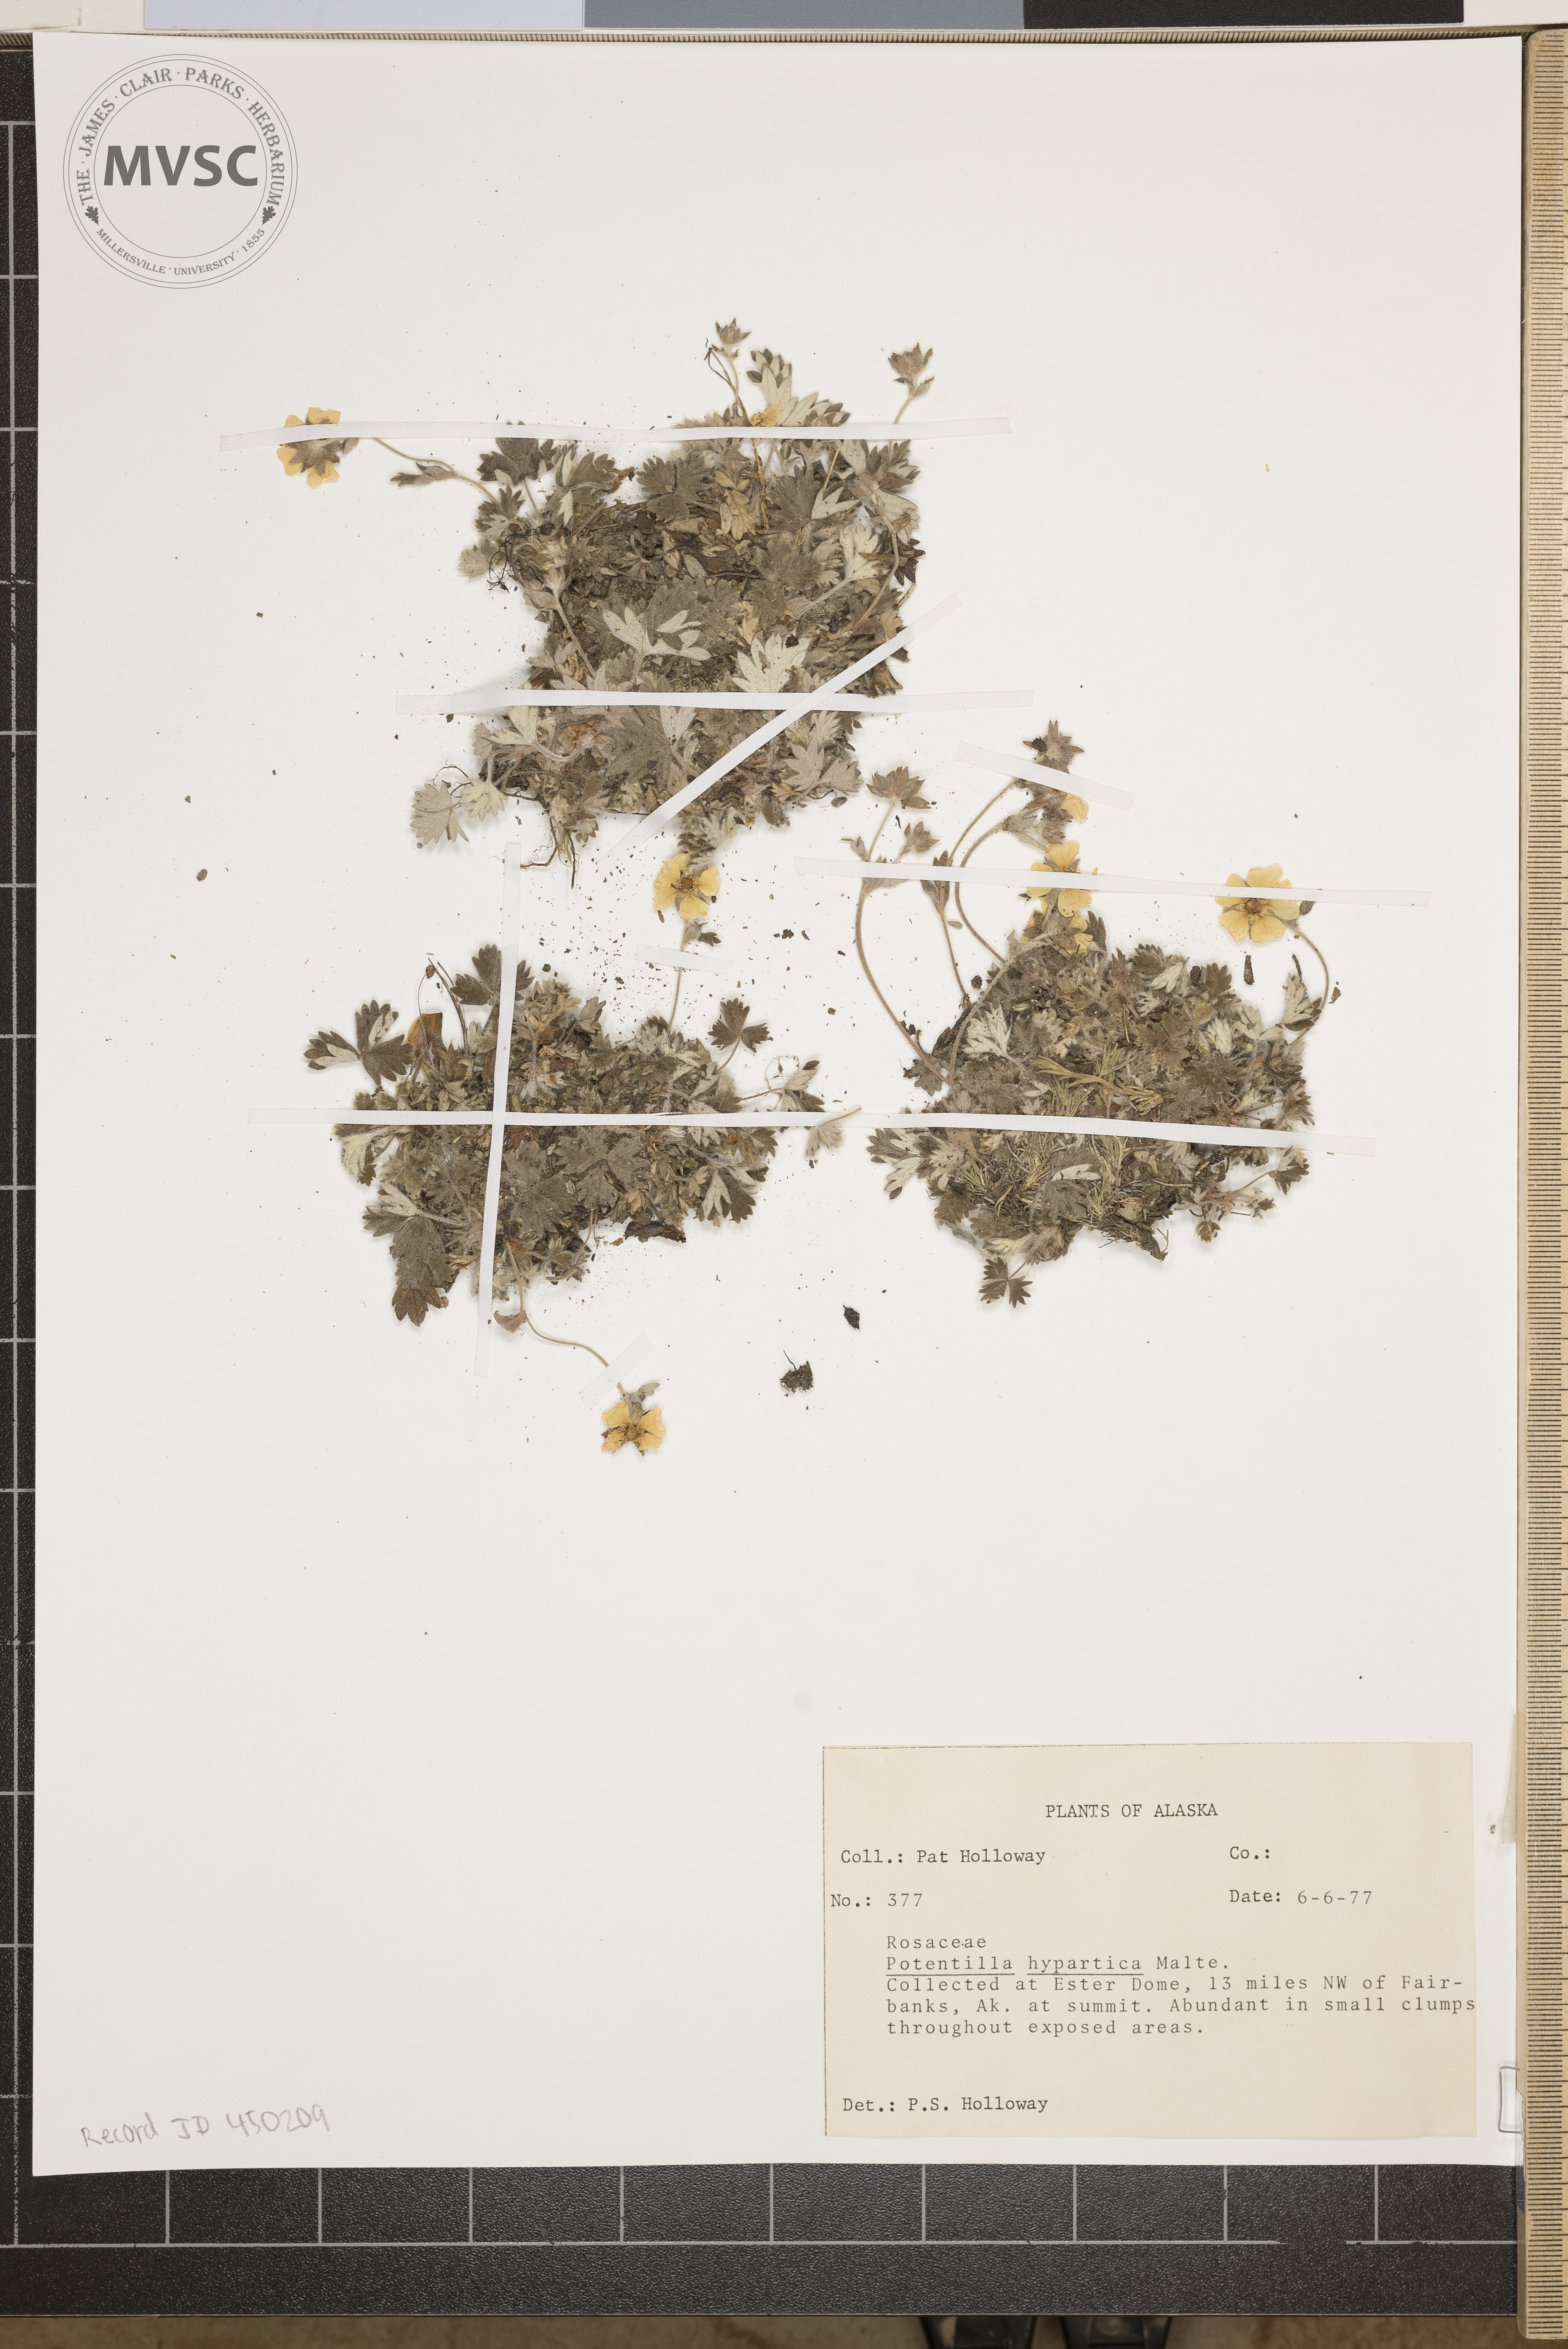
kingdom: Plantae
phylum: Tracheophyta
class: Magnoliopsida
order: Rosales
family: Rosaceae
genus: Potentilla
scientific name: Potentilla hypartica
